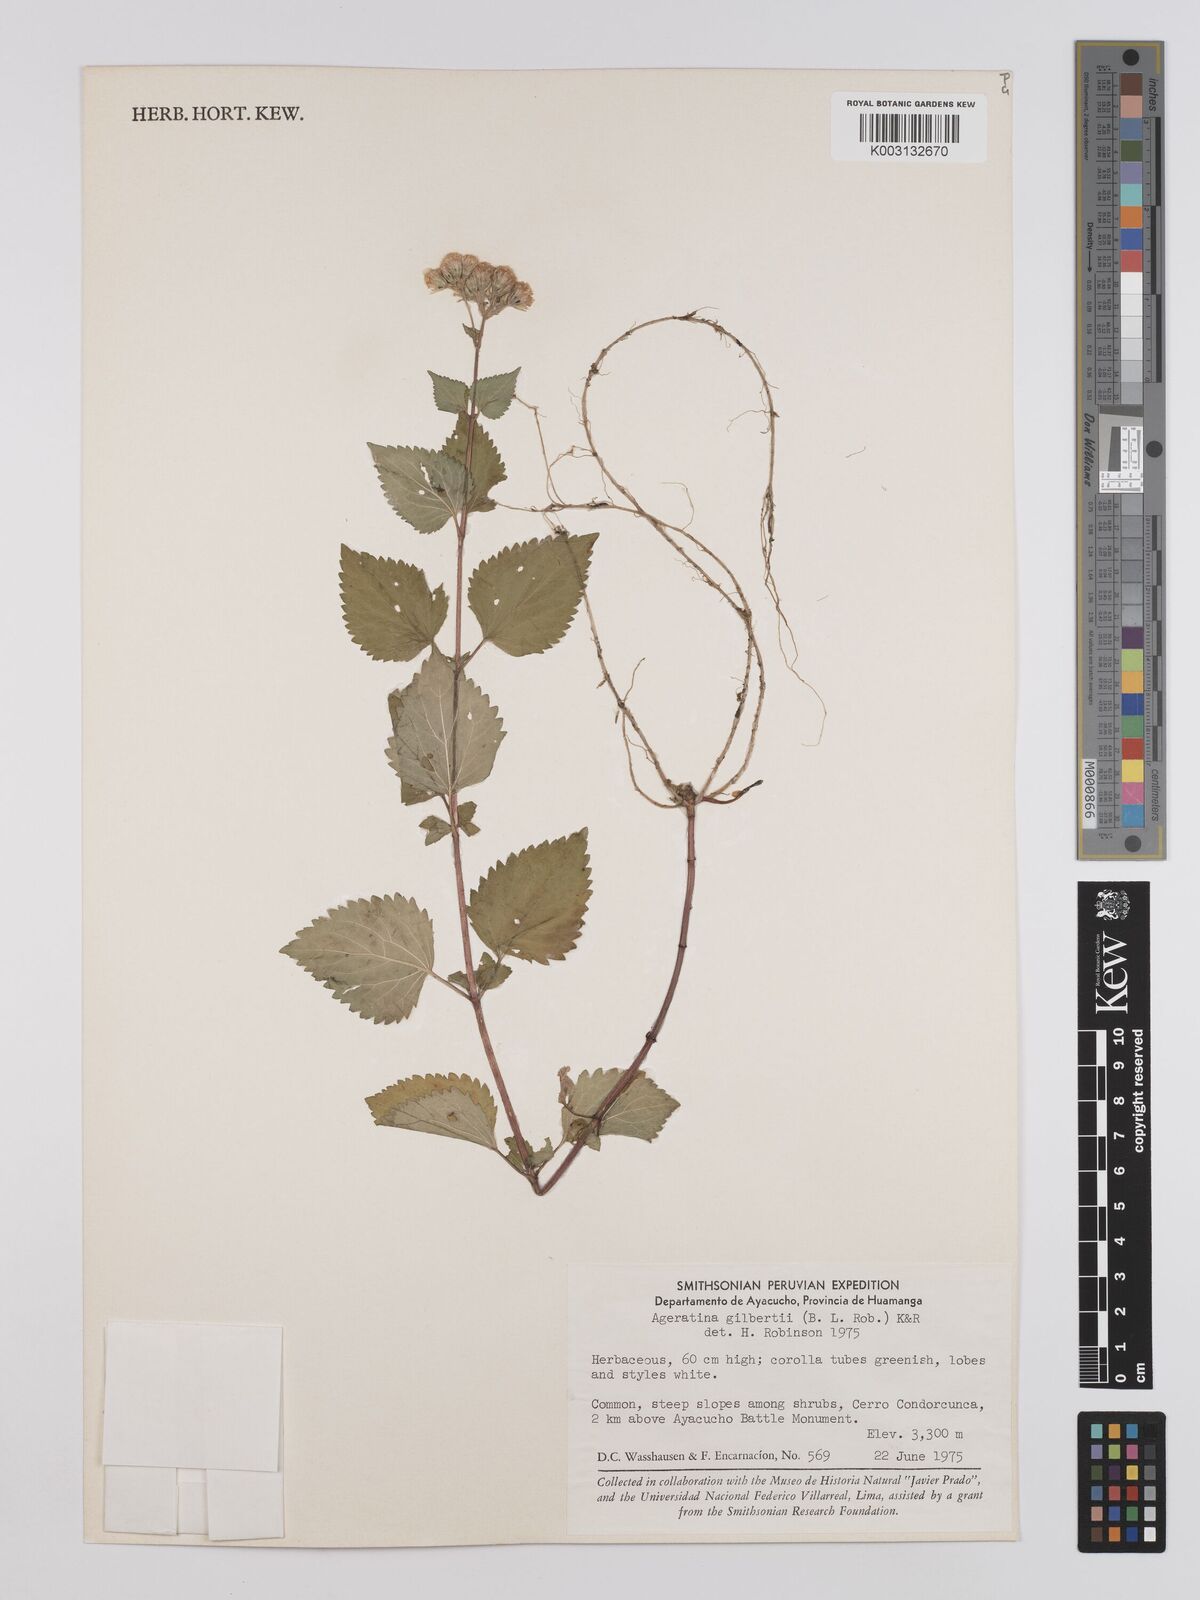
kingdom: Plantae
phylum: Tracheophyta
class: Magnoliopsida
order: Asterales
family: Asteraceae
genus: Ageratina
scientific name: Ageratina gilbertii
